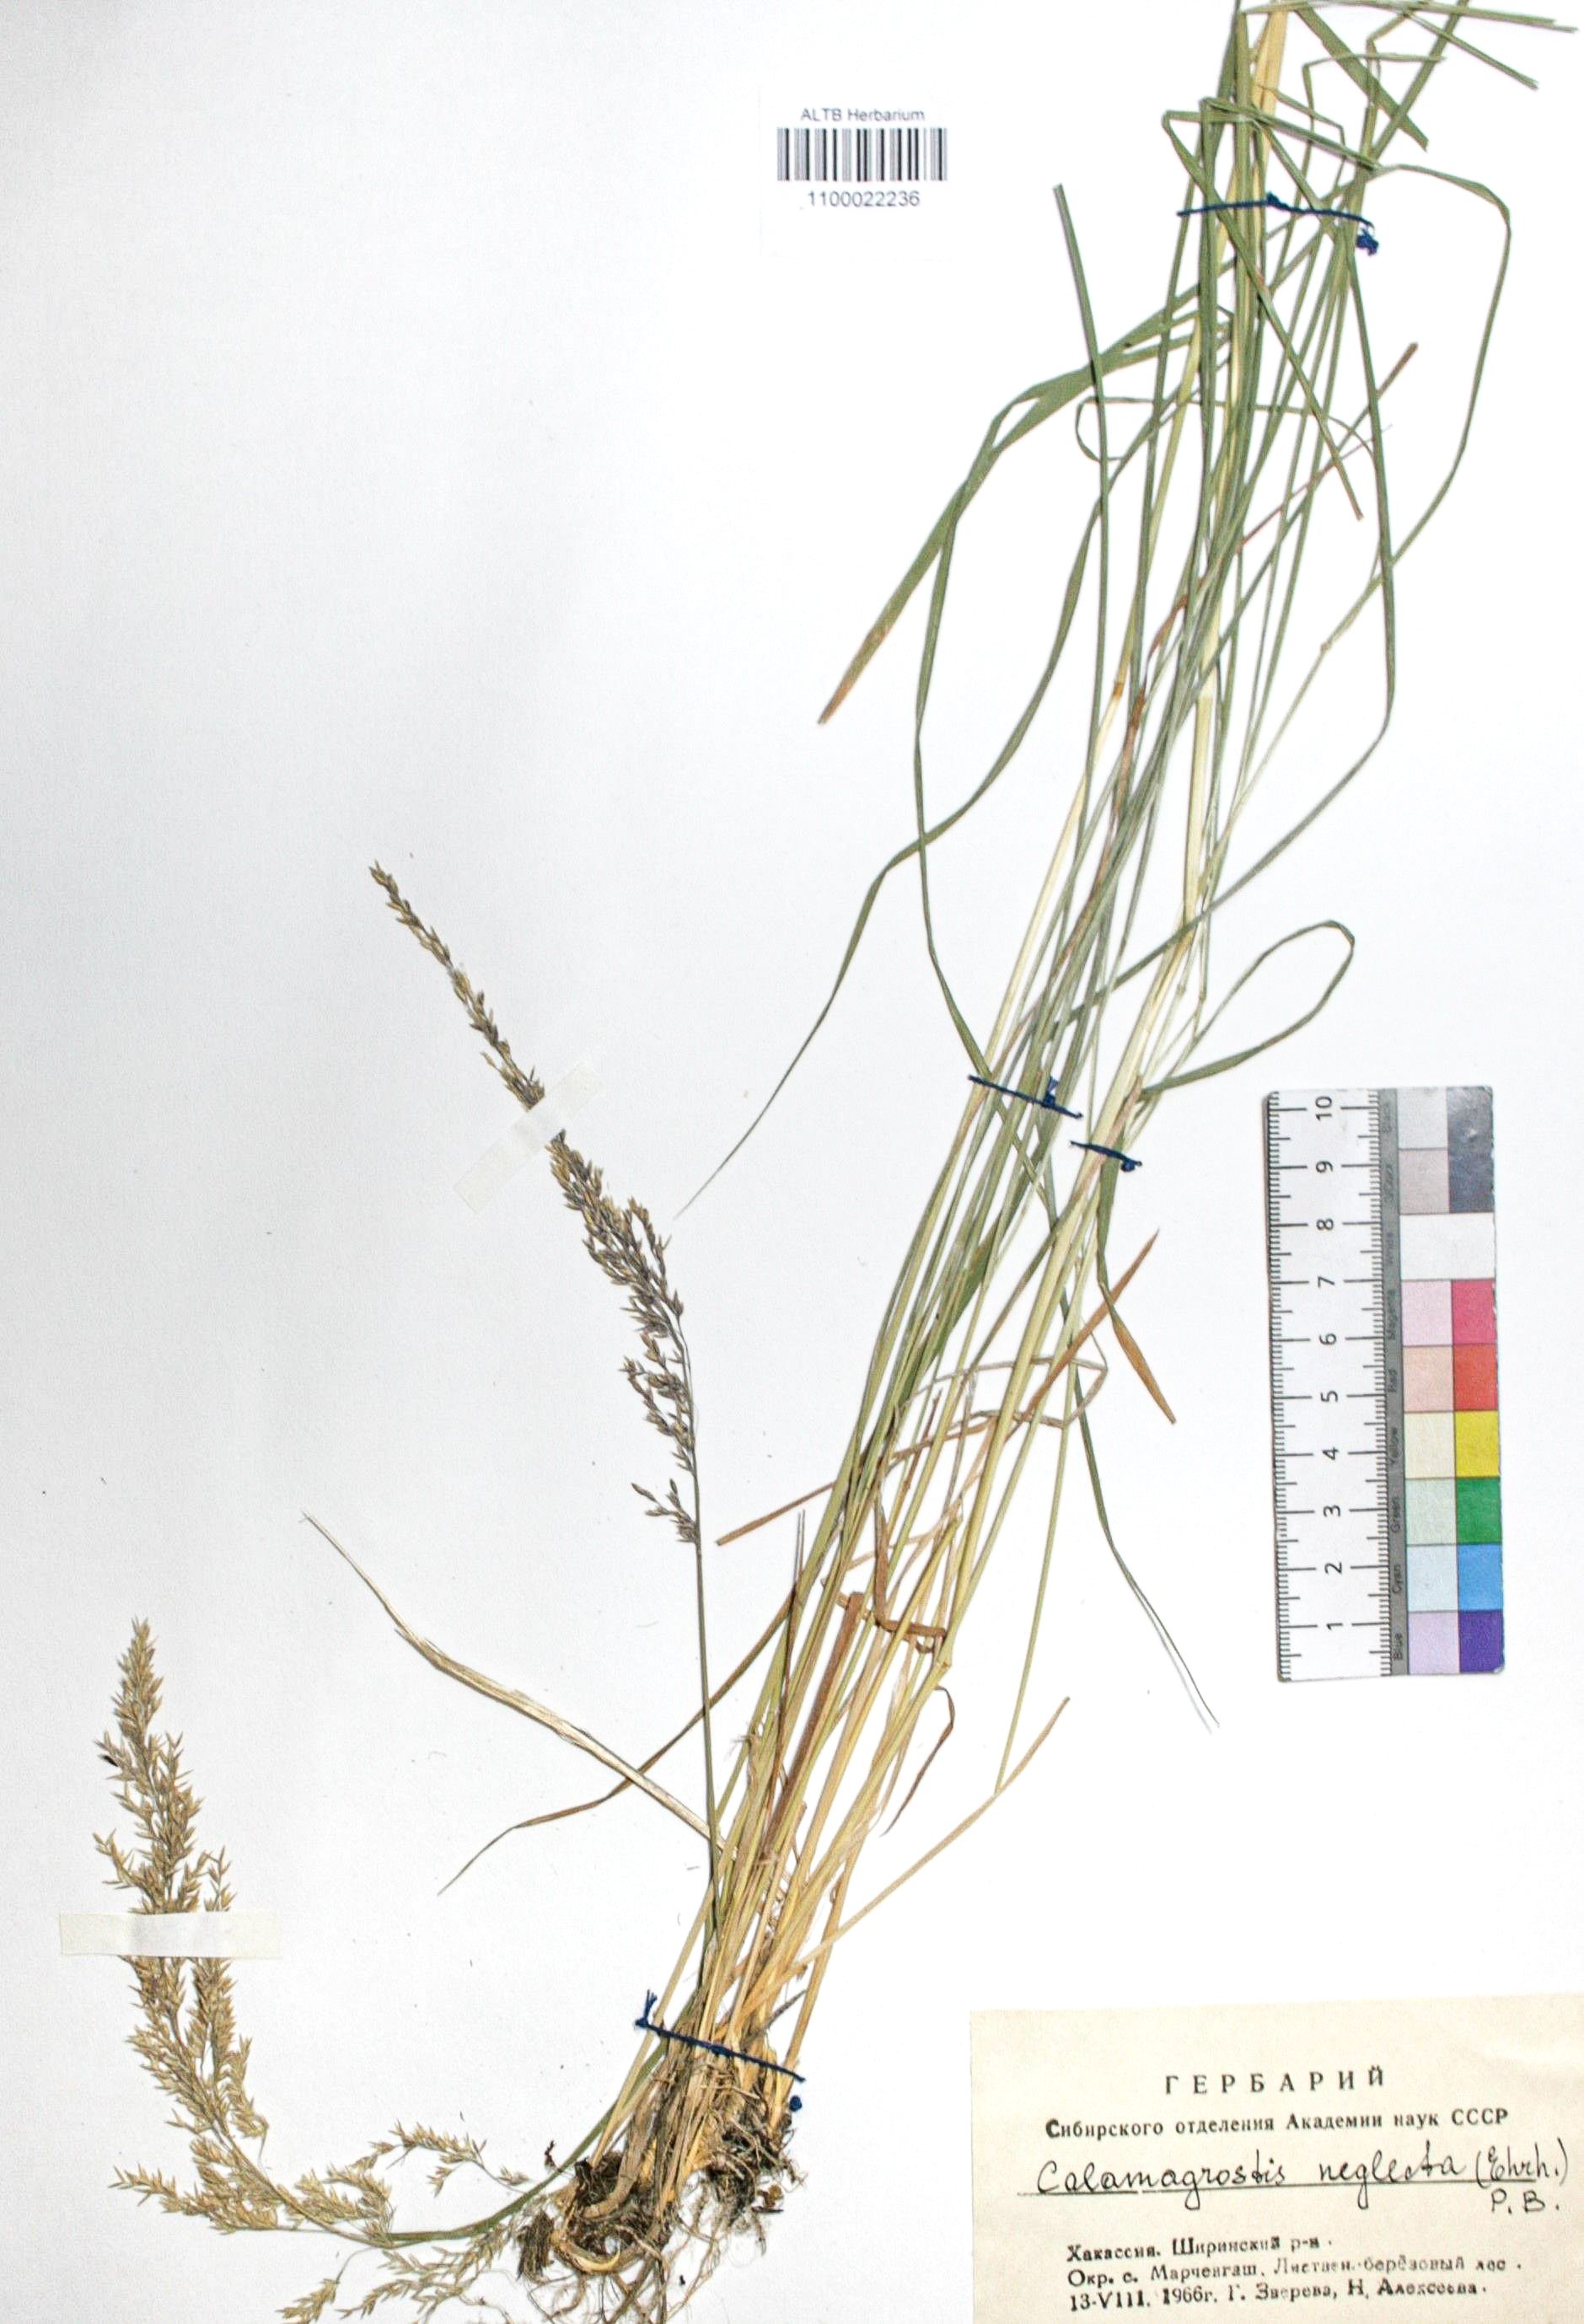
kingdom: Plantae
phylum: Tracheophyta
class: Liliopsida
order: Poales
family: Poaceae
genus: Achnatherum
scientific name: Achnatherum calamagrostis
